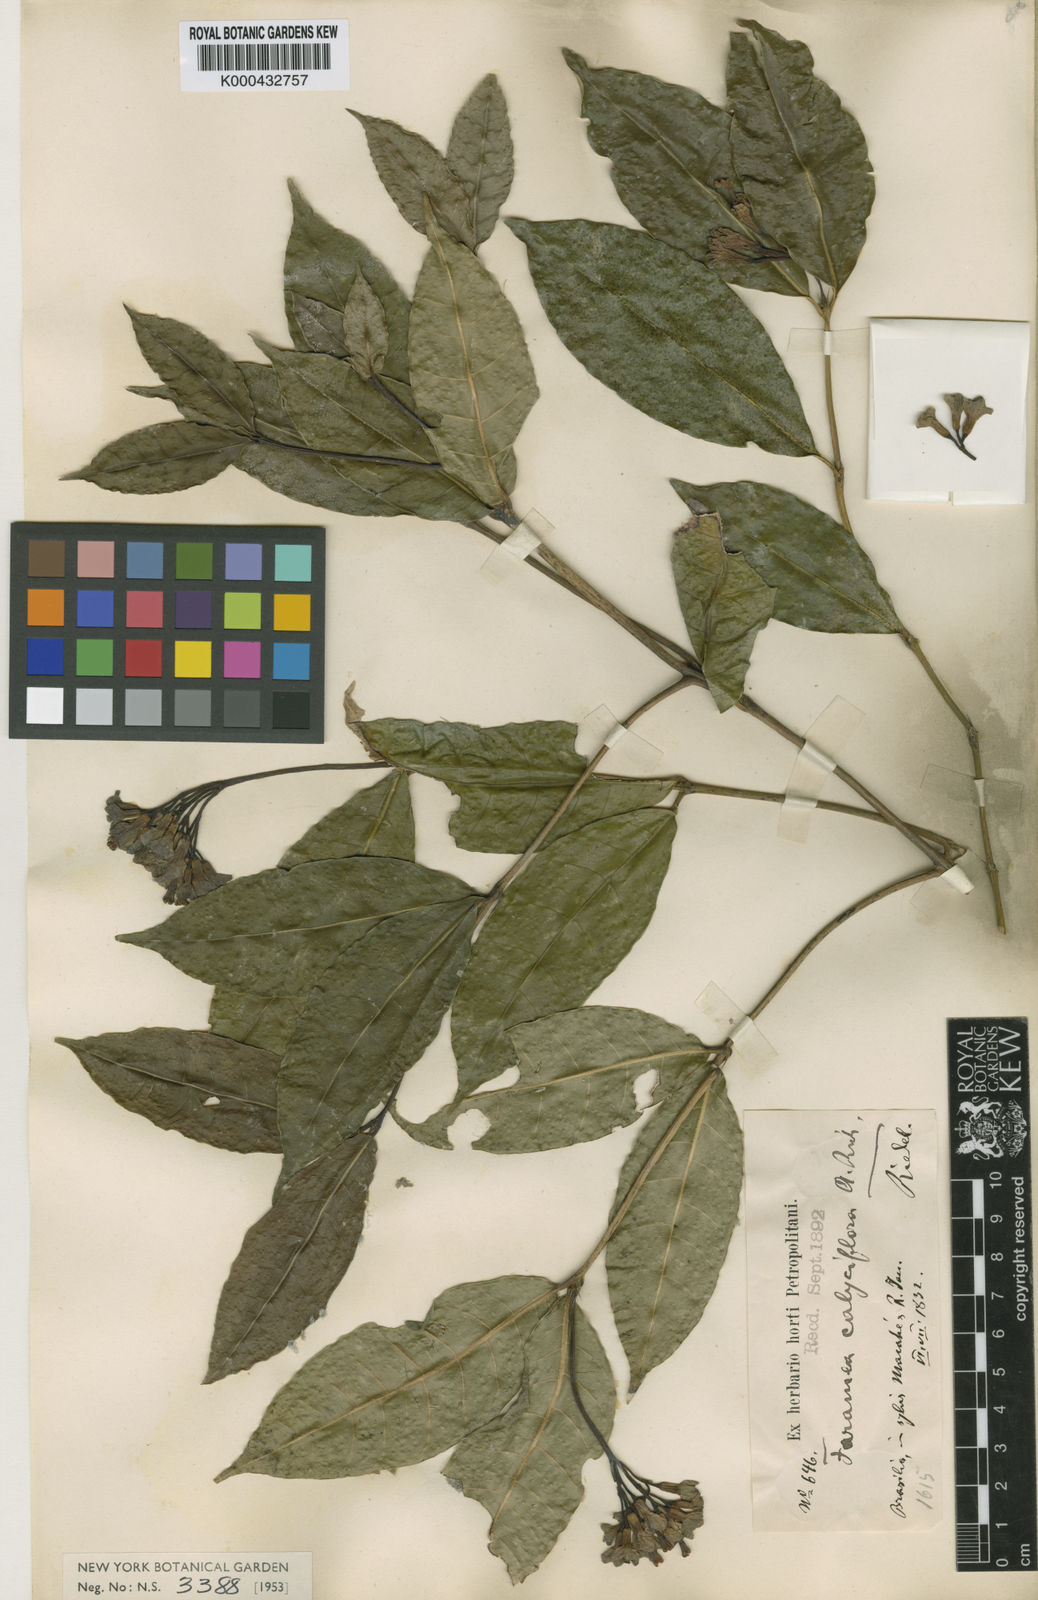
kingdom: Plantae
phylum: Tracheophyta
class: Magnoliopsida
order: Gentianales
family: Rubiaceae
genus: Faramea
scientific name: Faramea calyciflora
